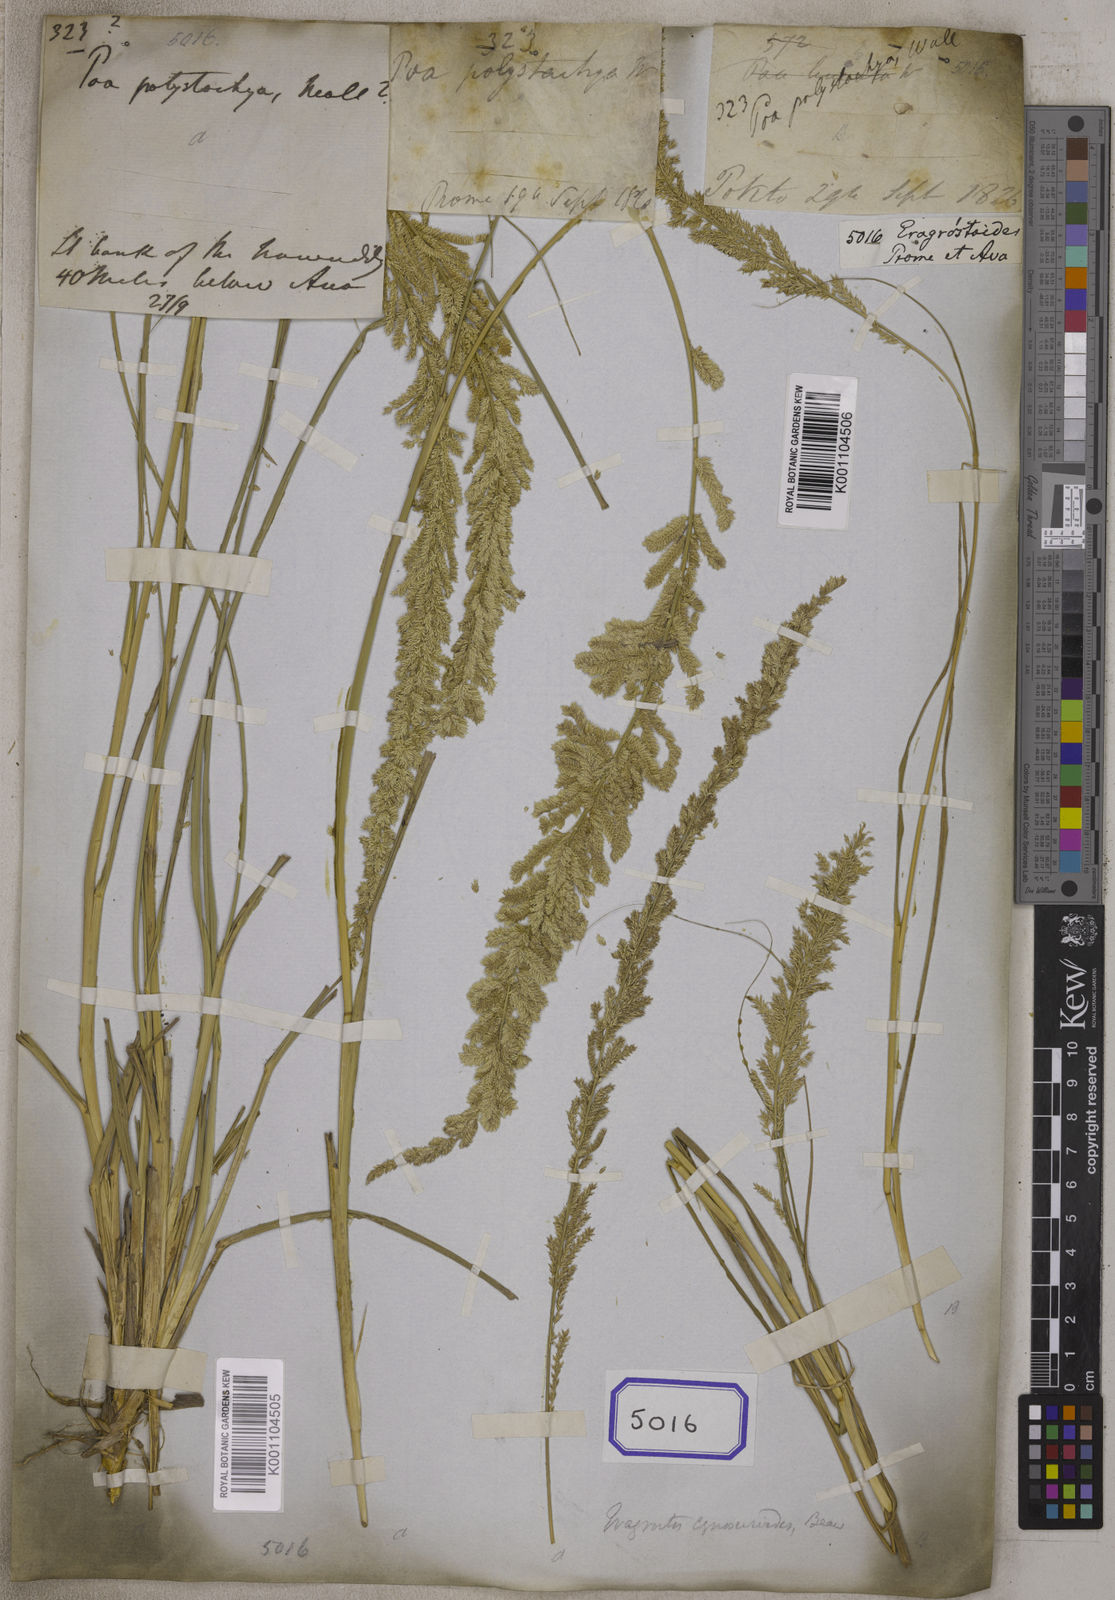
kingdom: Plantae
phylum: Tracheophyta
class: Liliopsida
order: Poales
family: Poaceae
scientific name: Poaceae
